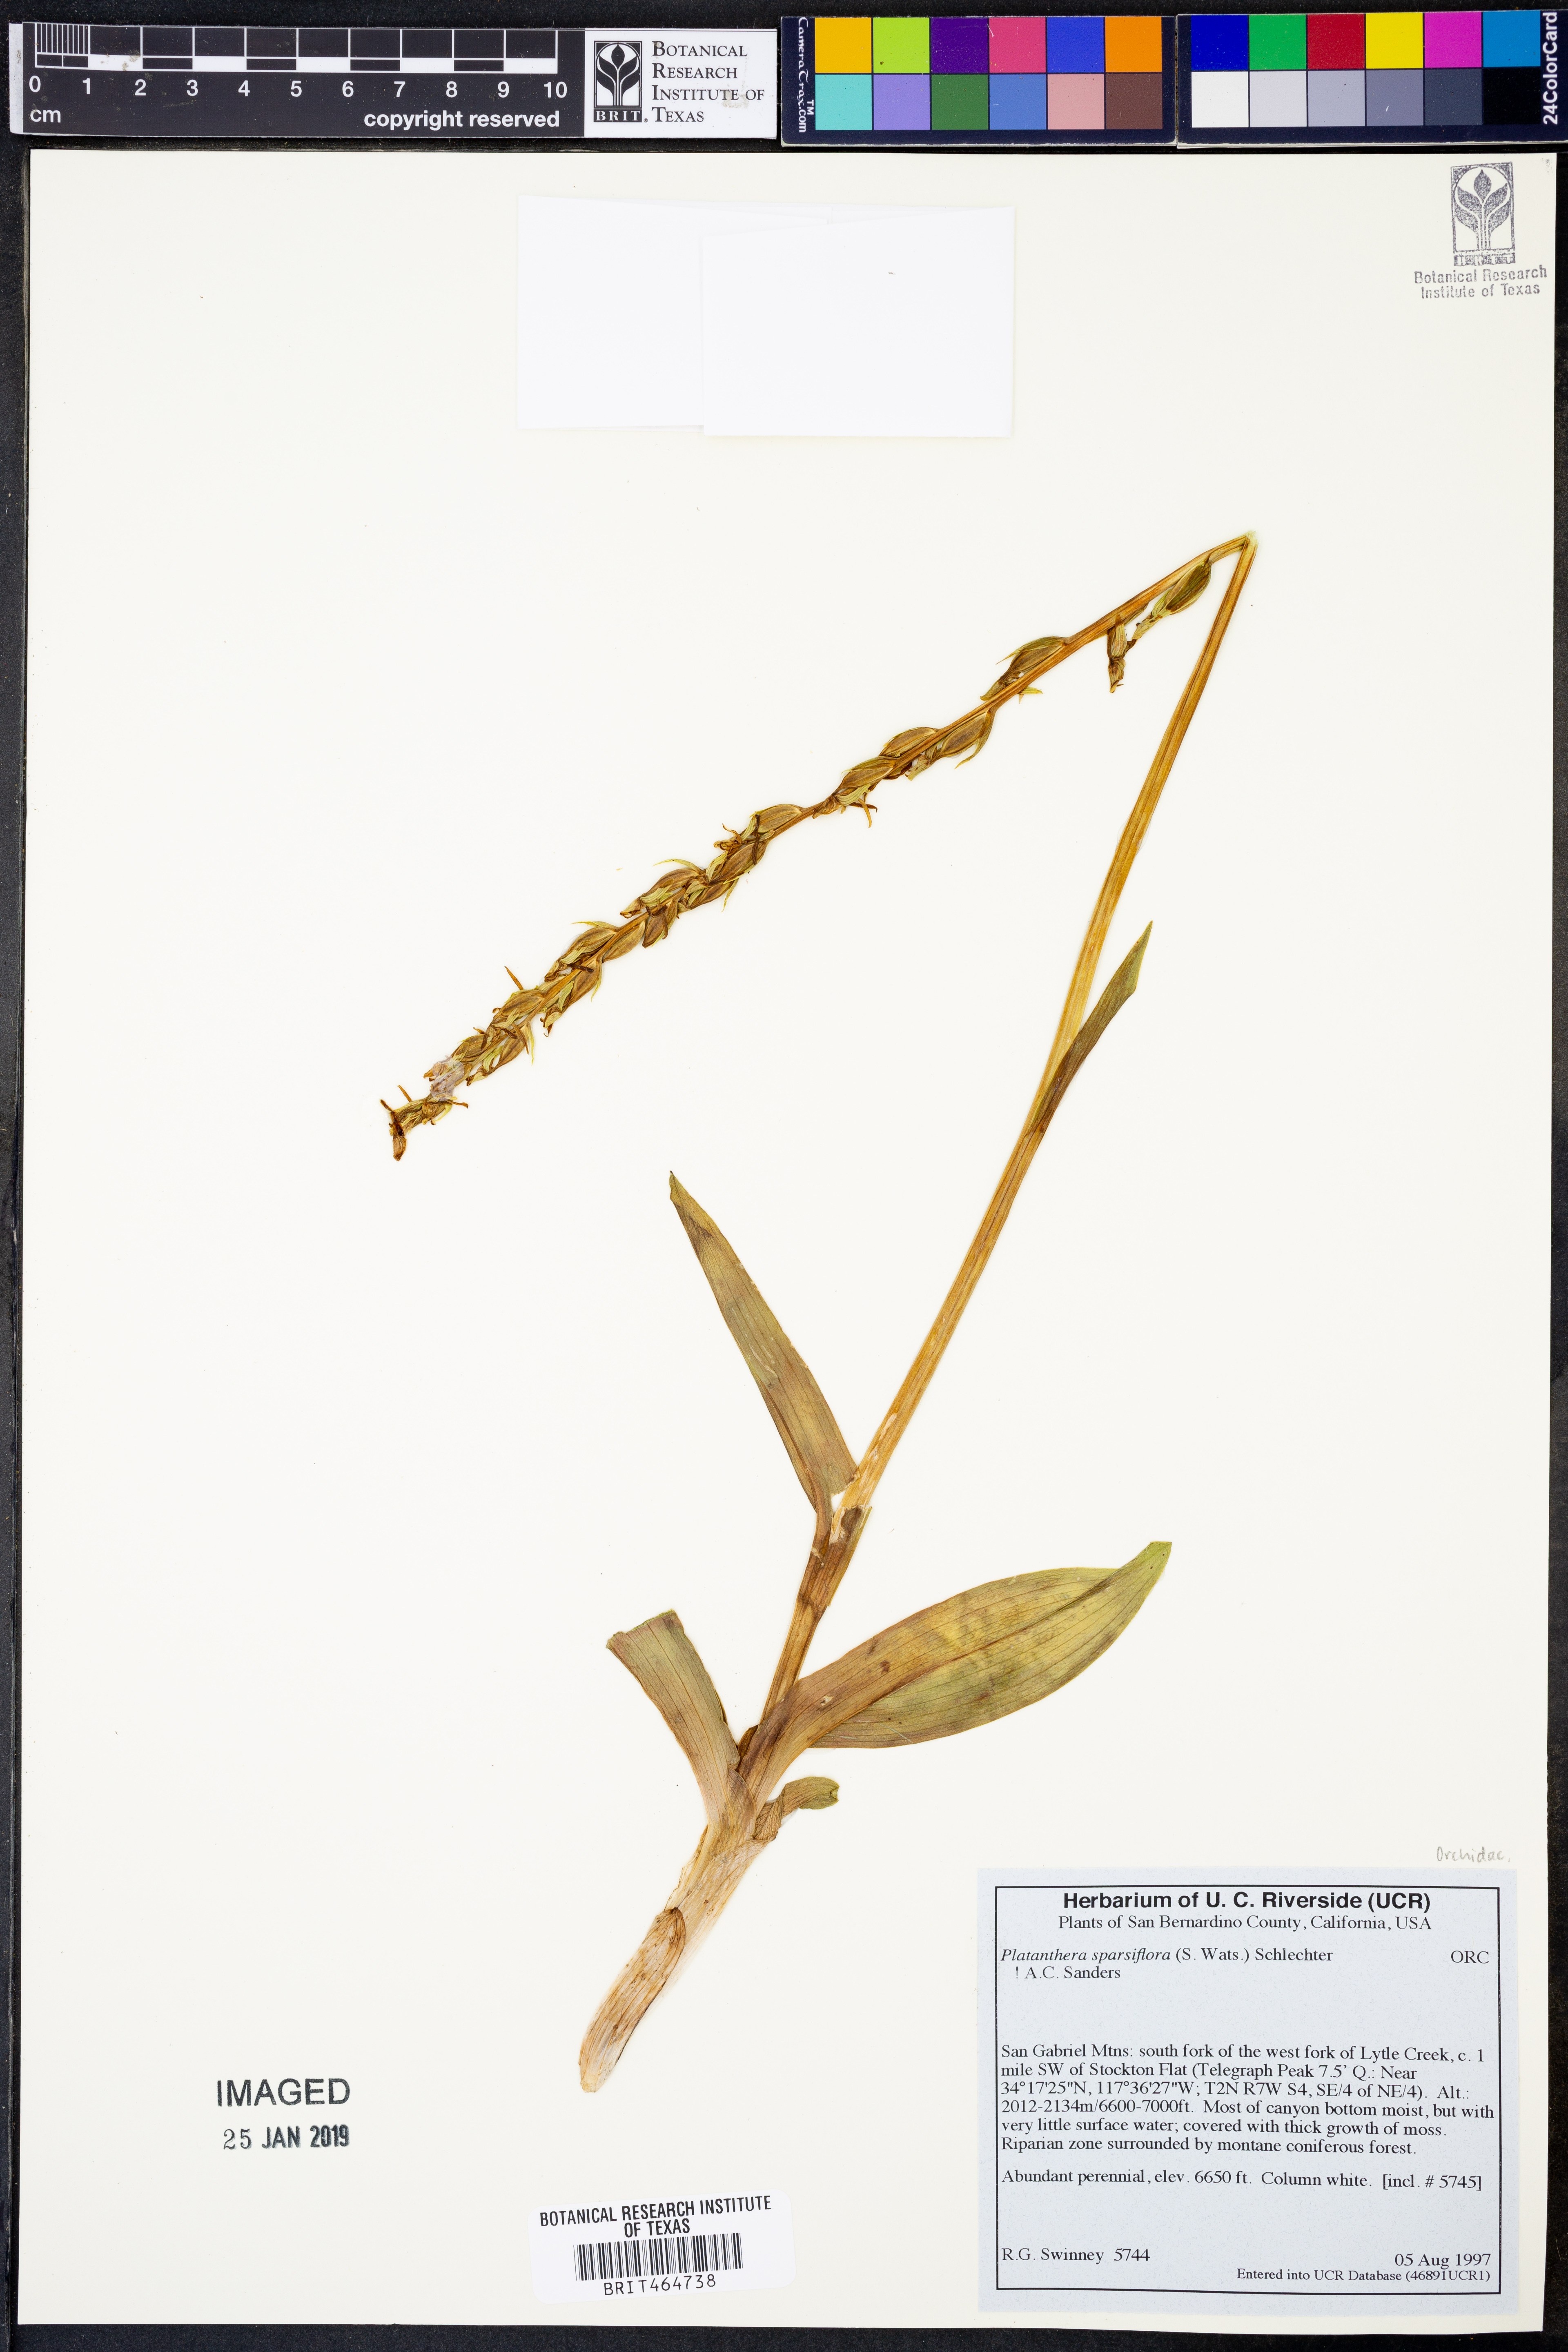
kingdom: Plantae
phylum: Tracheophyta
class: Liliopsida
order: Asparagales
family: Orchidaceae
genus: Platanthera
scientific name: Platanthera sparsiflora
